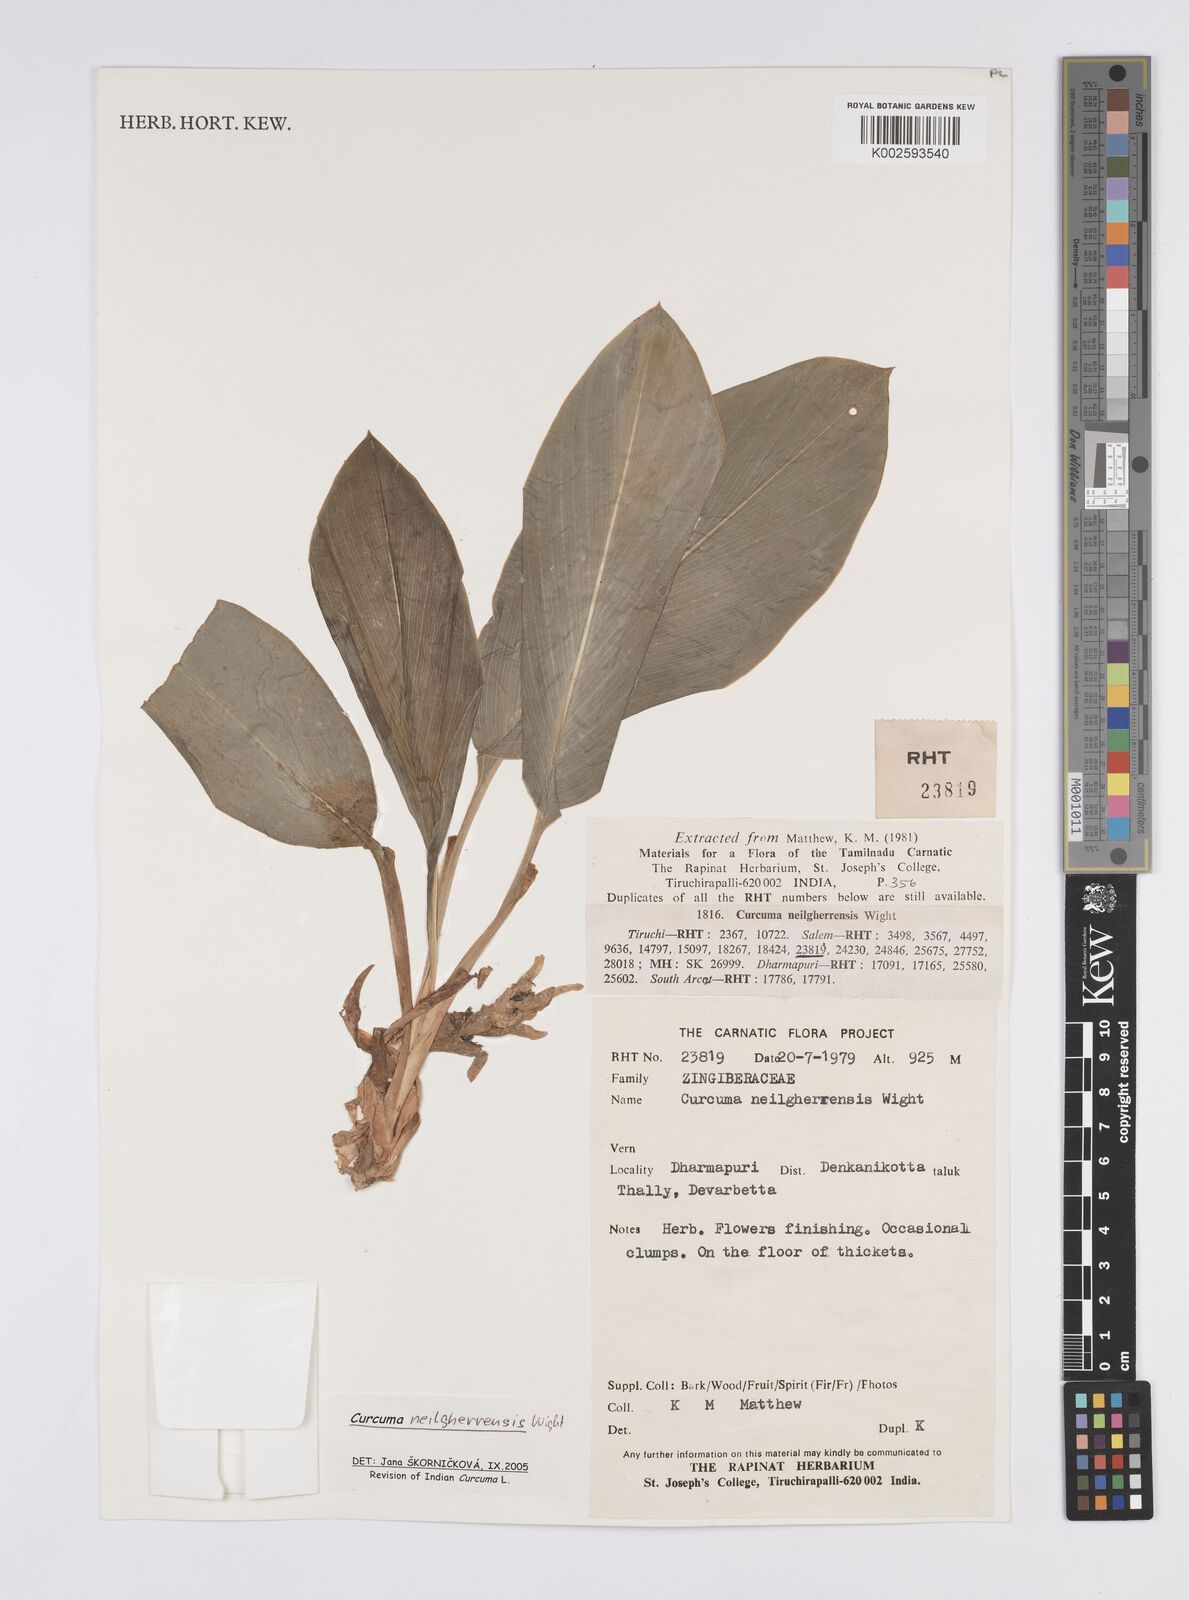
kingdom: Plantae
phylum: Tracheophyta
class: Liliopsida
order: Zingiberales
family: Zingiberaceae
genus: Curcuma
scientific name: Curcuma neilgherrensis
